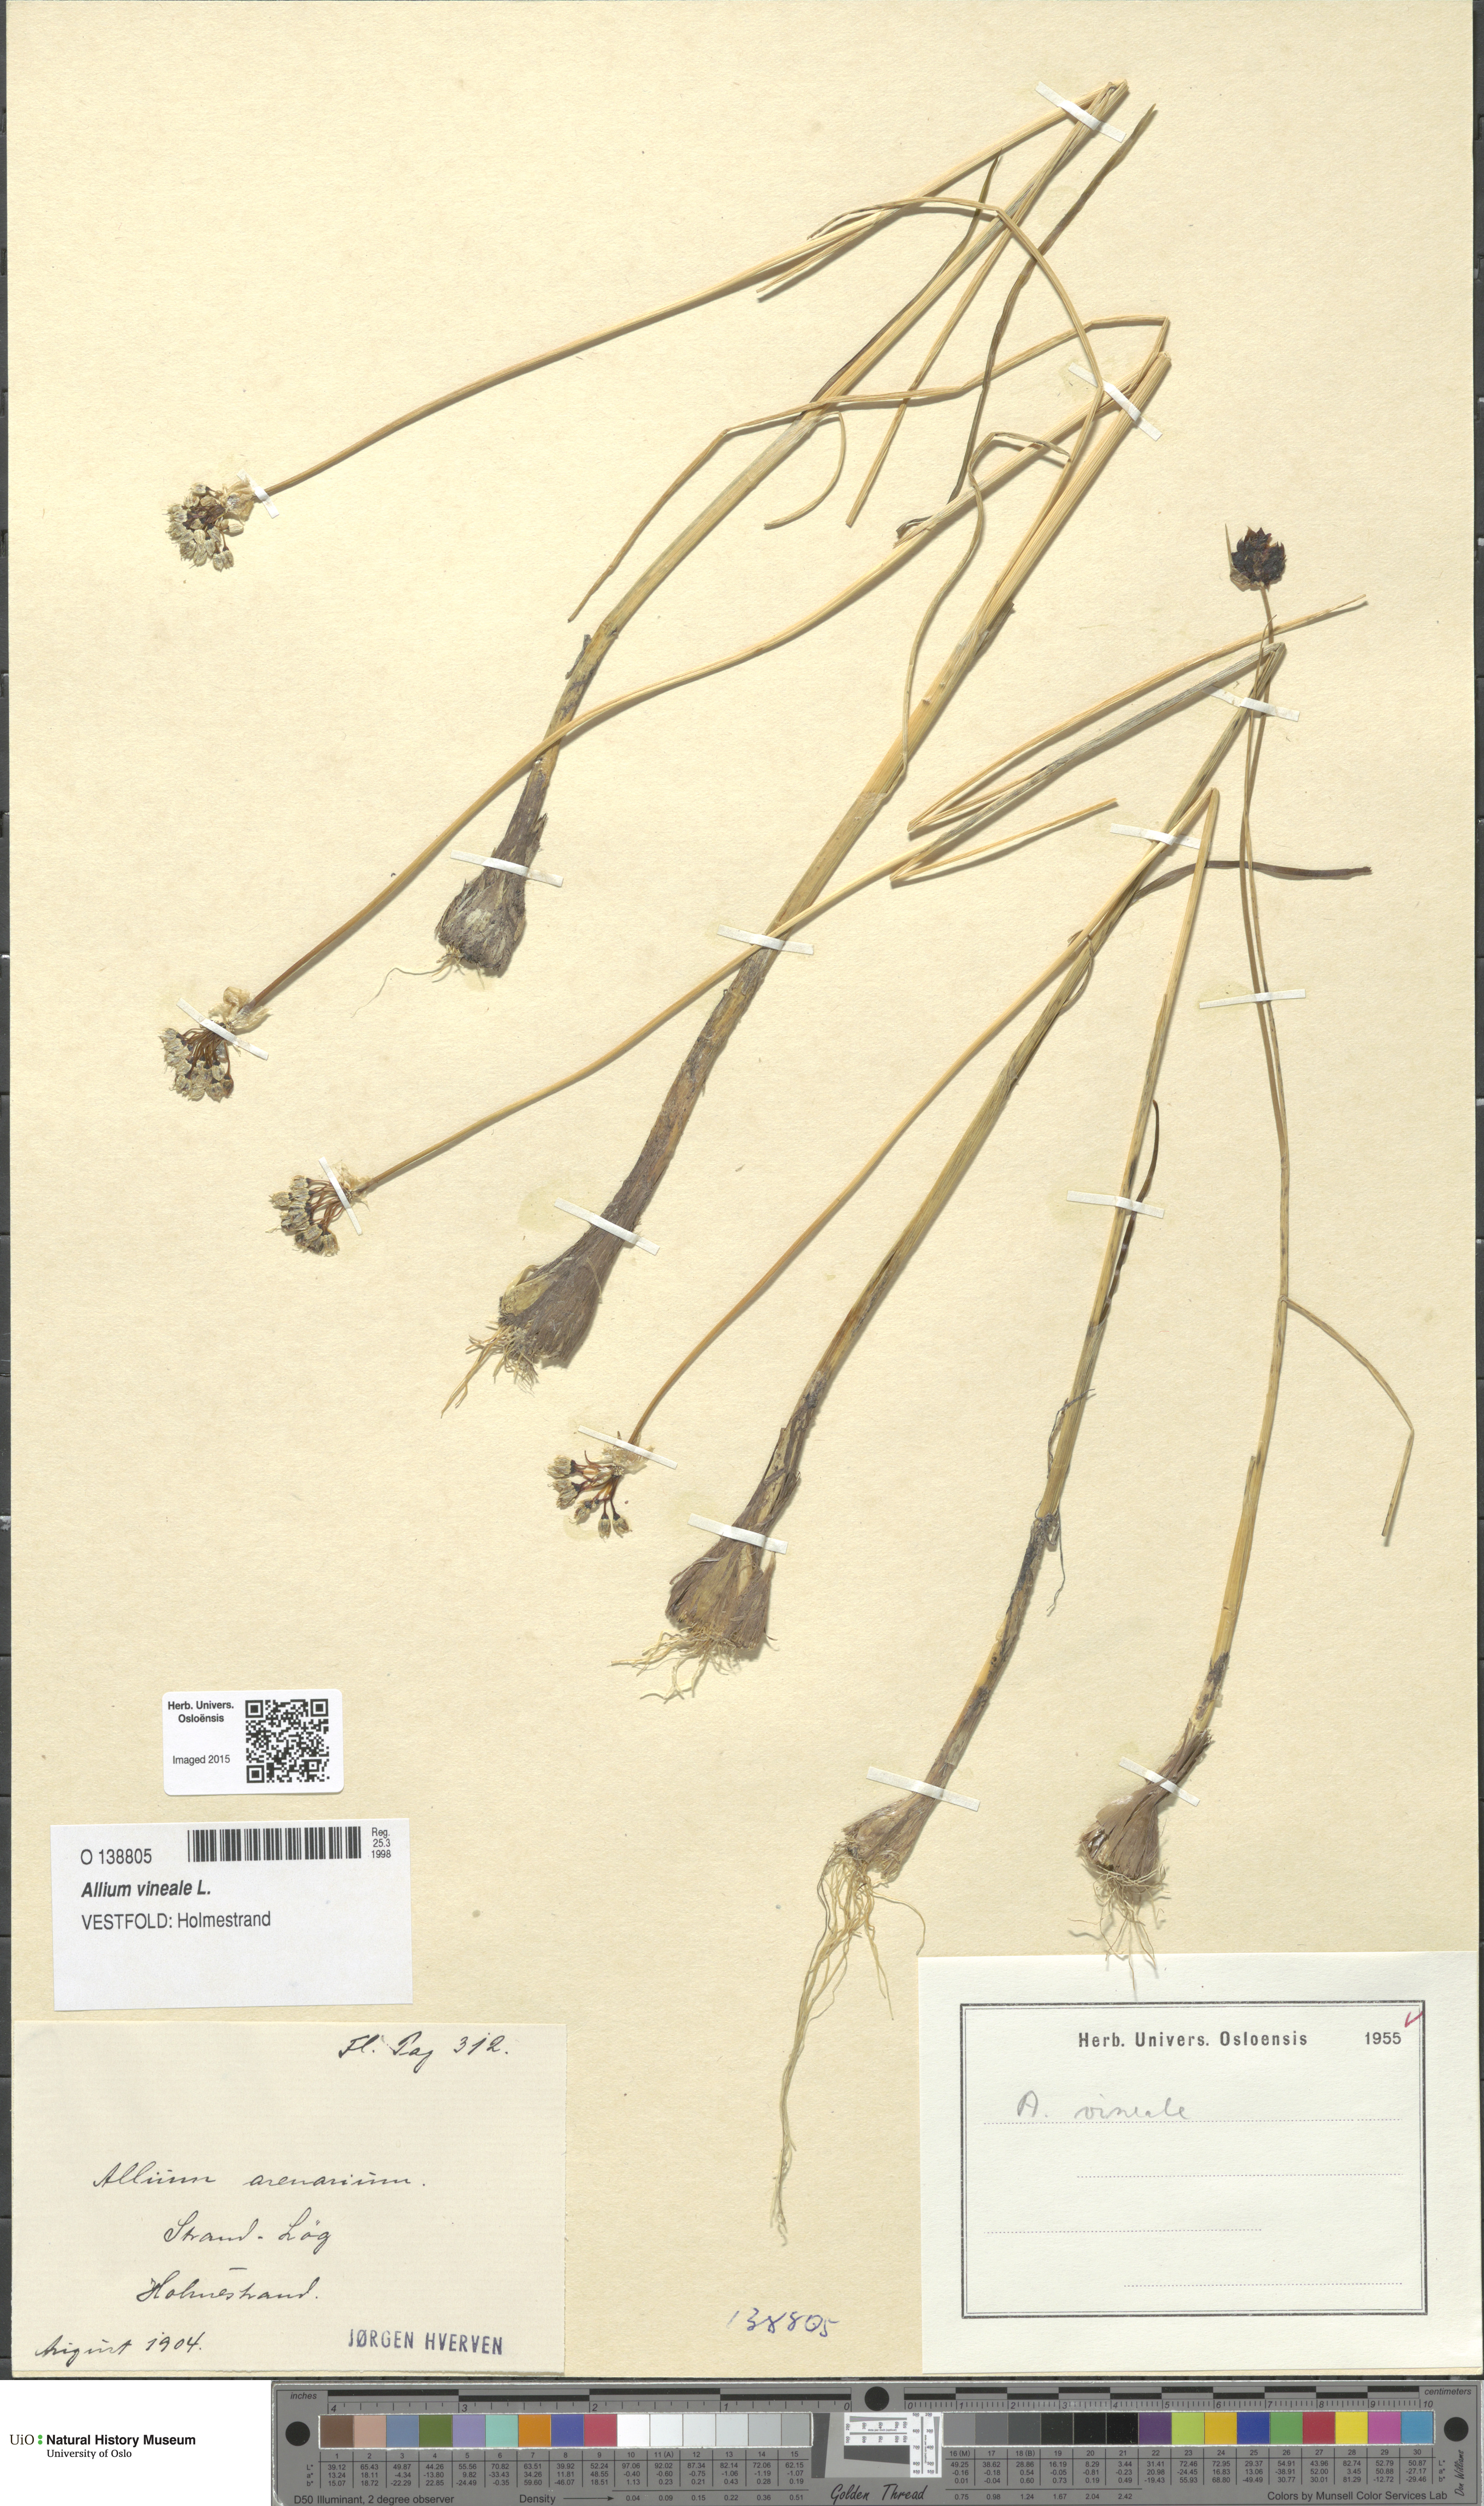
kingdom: Plantae
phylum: Tracheophyta
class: Liliopsida
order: Asparagales
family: Amaryllidaceae
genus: Allium
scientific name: Allium vineale
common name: Crow garlic
